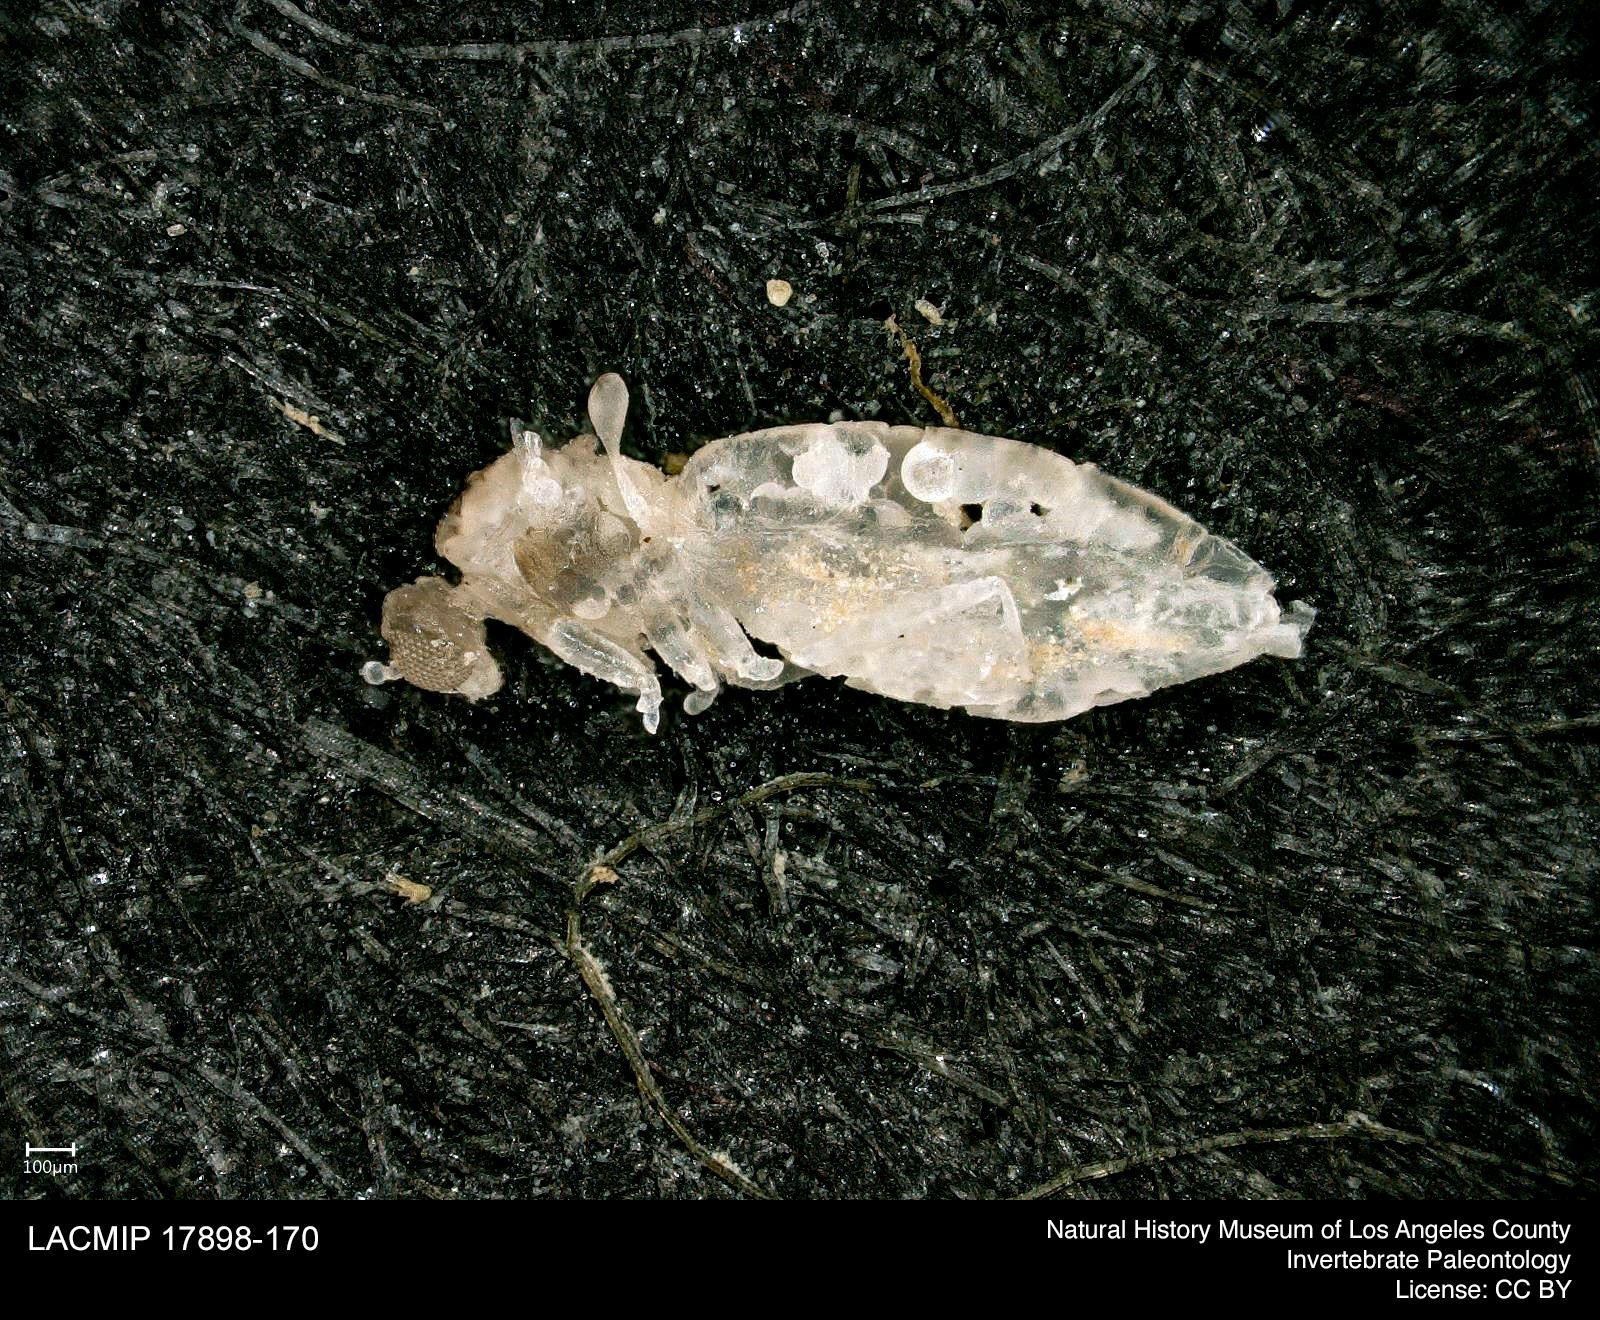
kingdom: Animalia
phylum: Arthropoda
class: Insecta
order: Diptera
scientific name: Diptera
